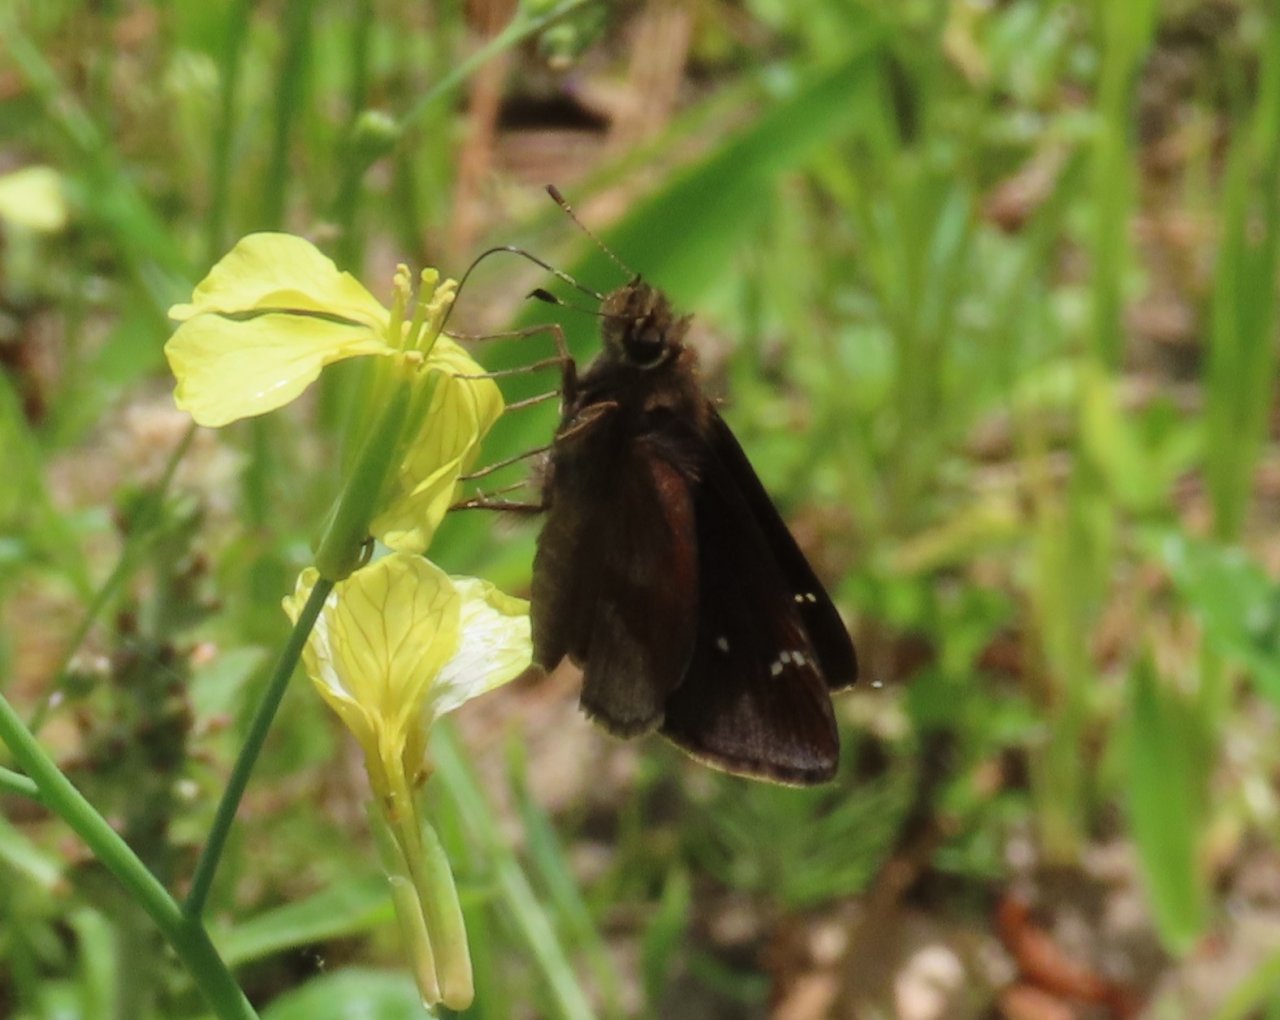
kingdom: Animalia
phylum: Arthropoda
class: Insecta
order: Lepidoptera
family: Hesperiidae
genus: Lerema
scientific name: Lerema accius
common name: Clouded Skipper
